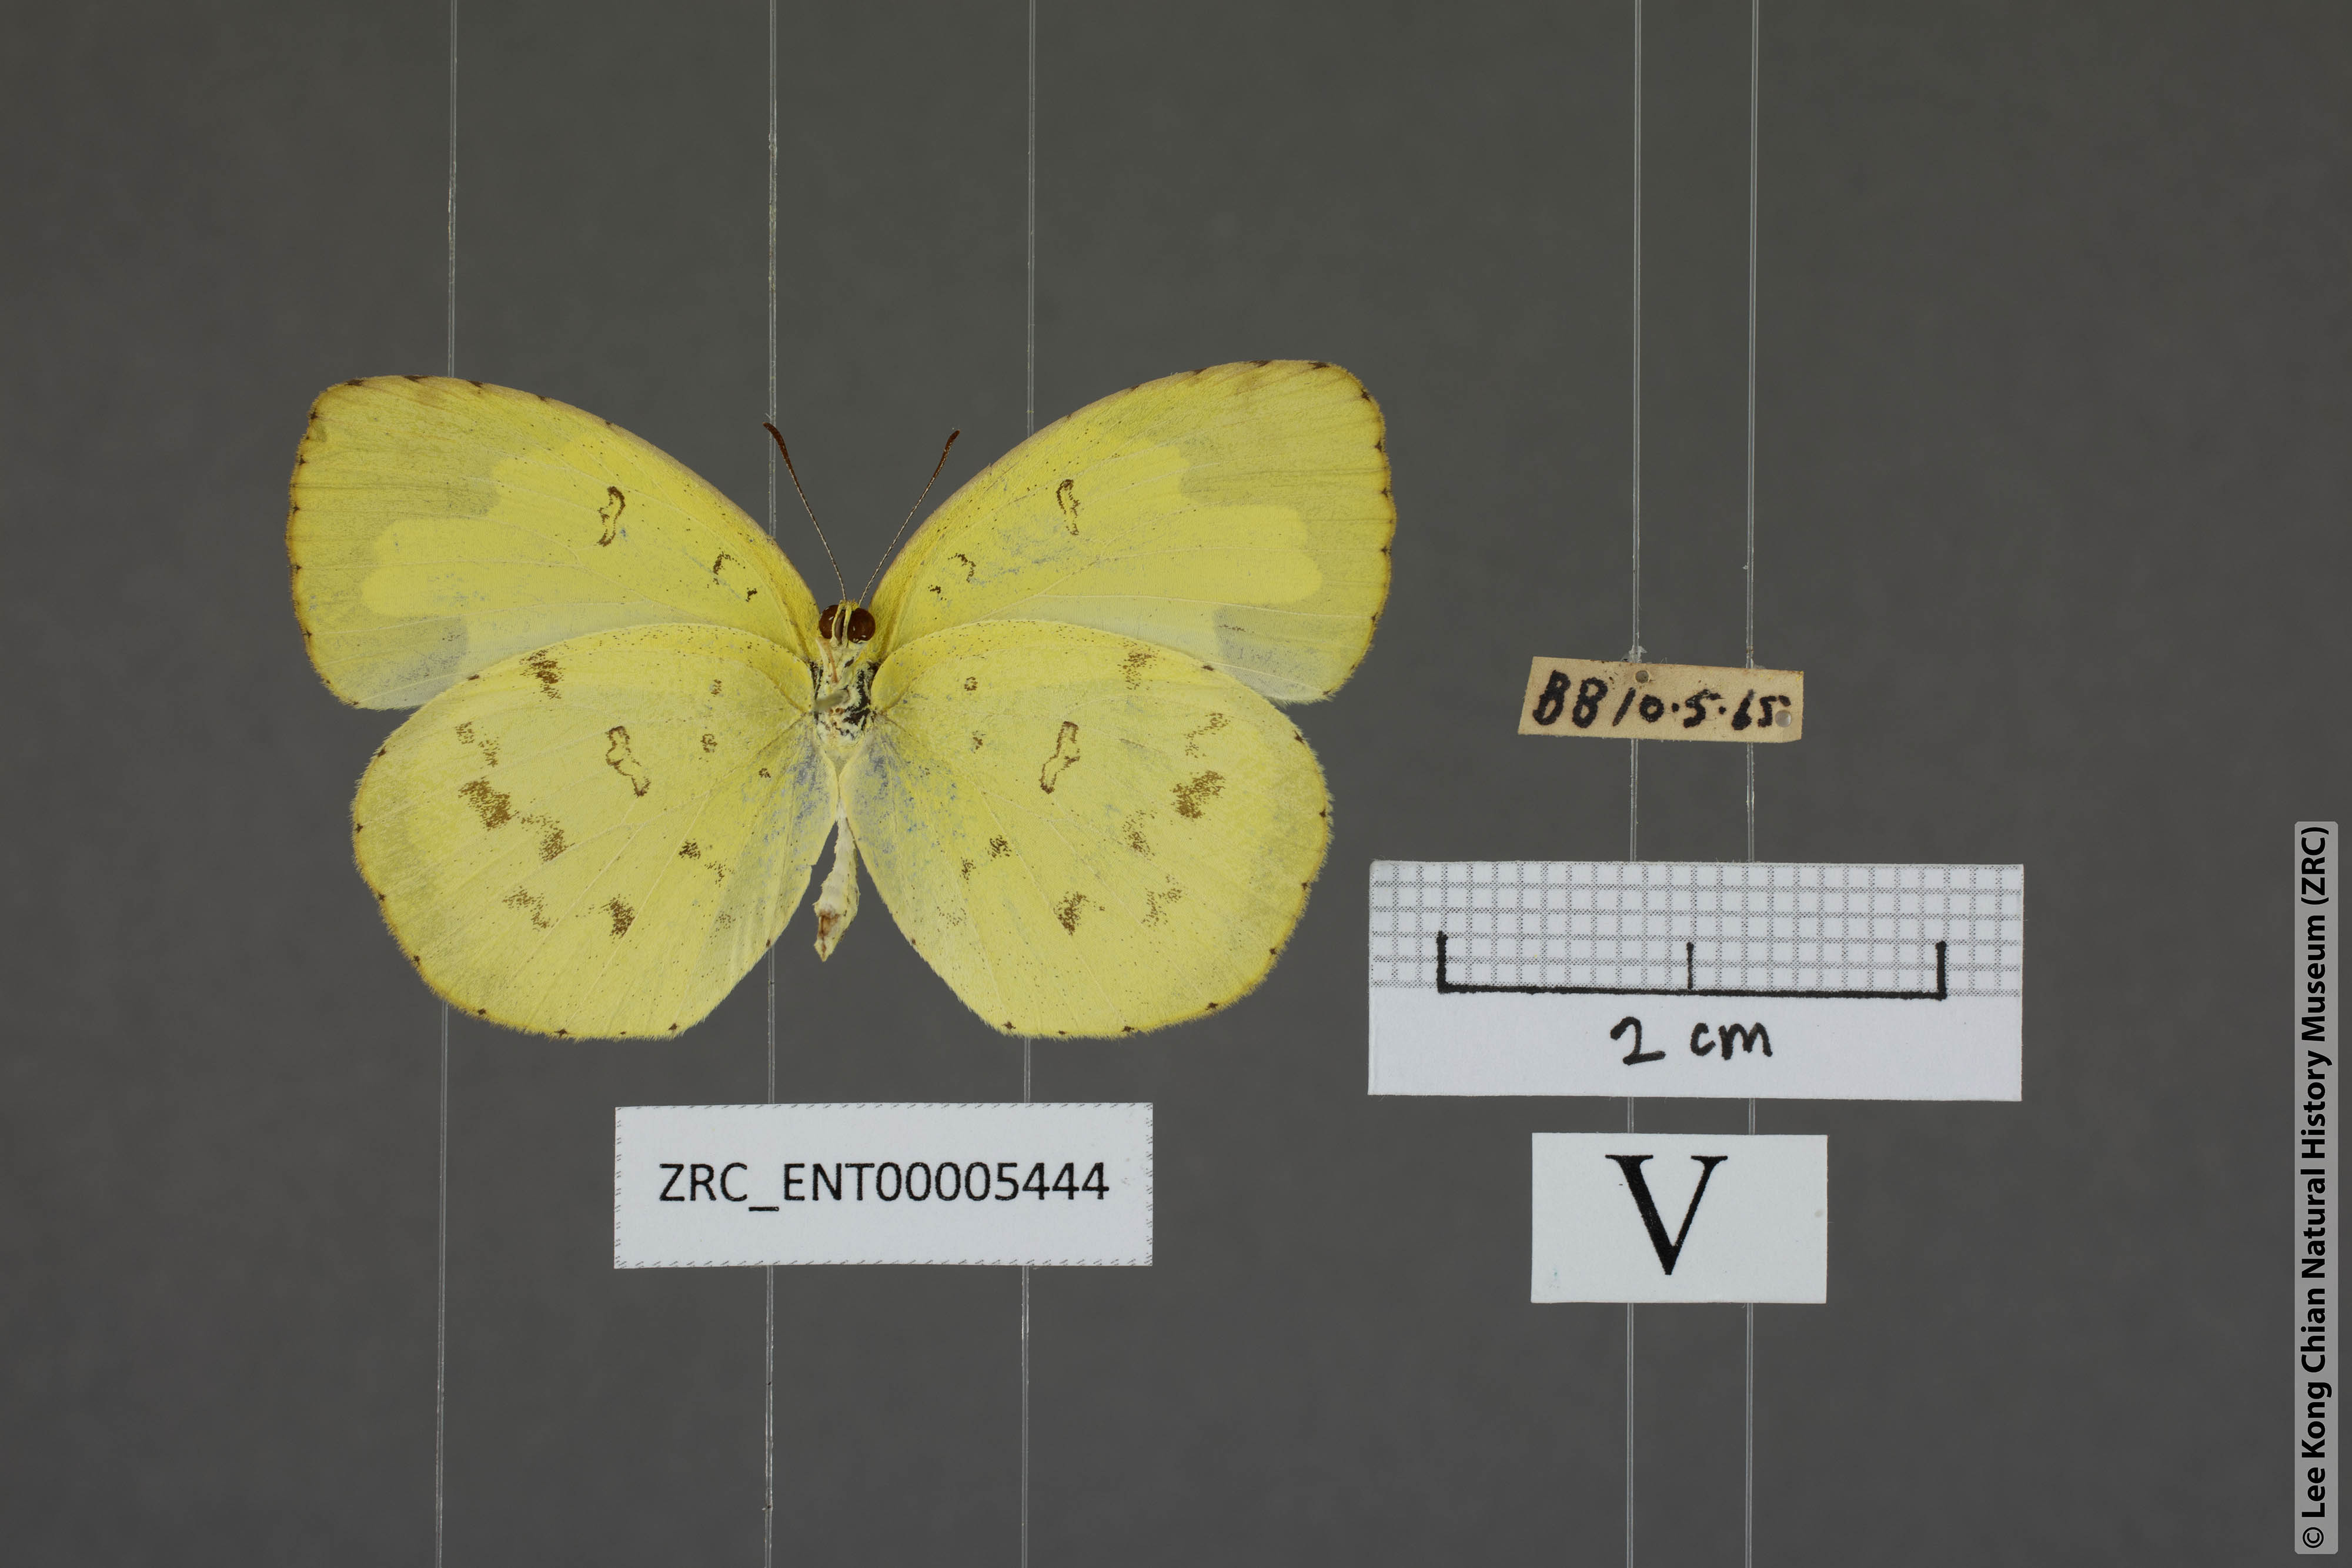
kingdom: Animalia
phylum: Arthropoda
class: Insecta
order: Lepidoptera
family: Pieridae
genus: Eurema
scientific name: Eurema hecabe
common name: Pale grass yellow
